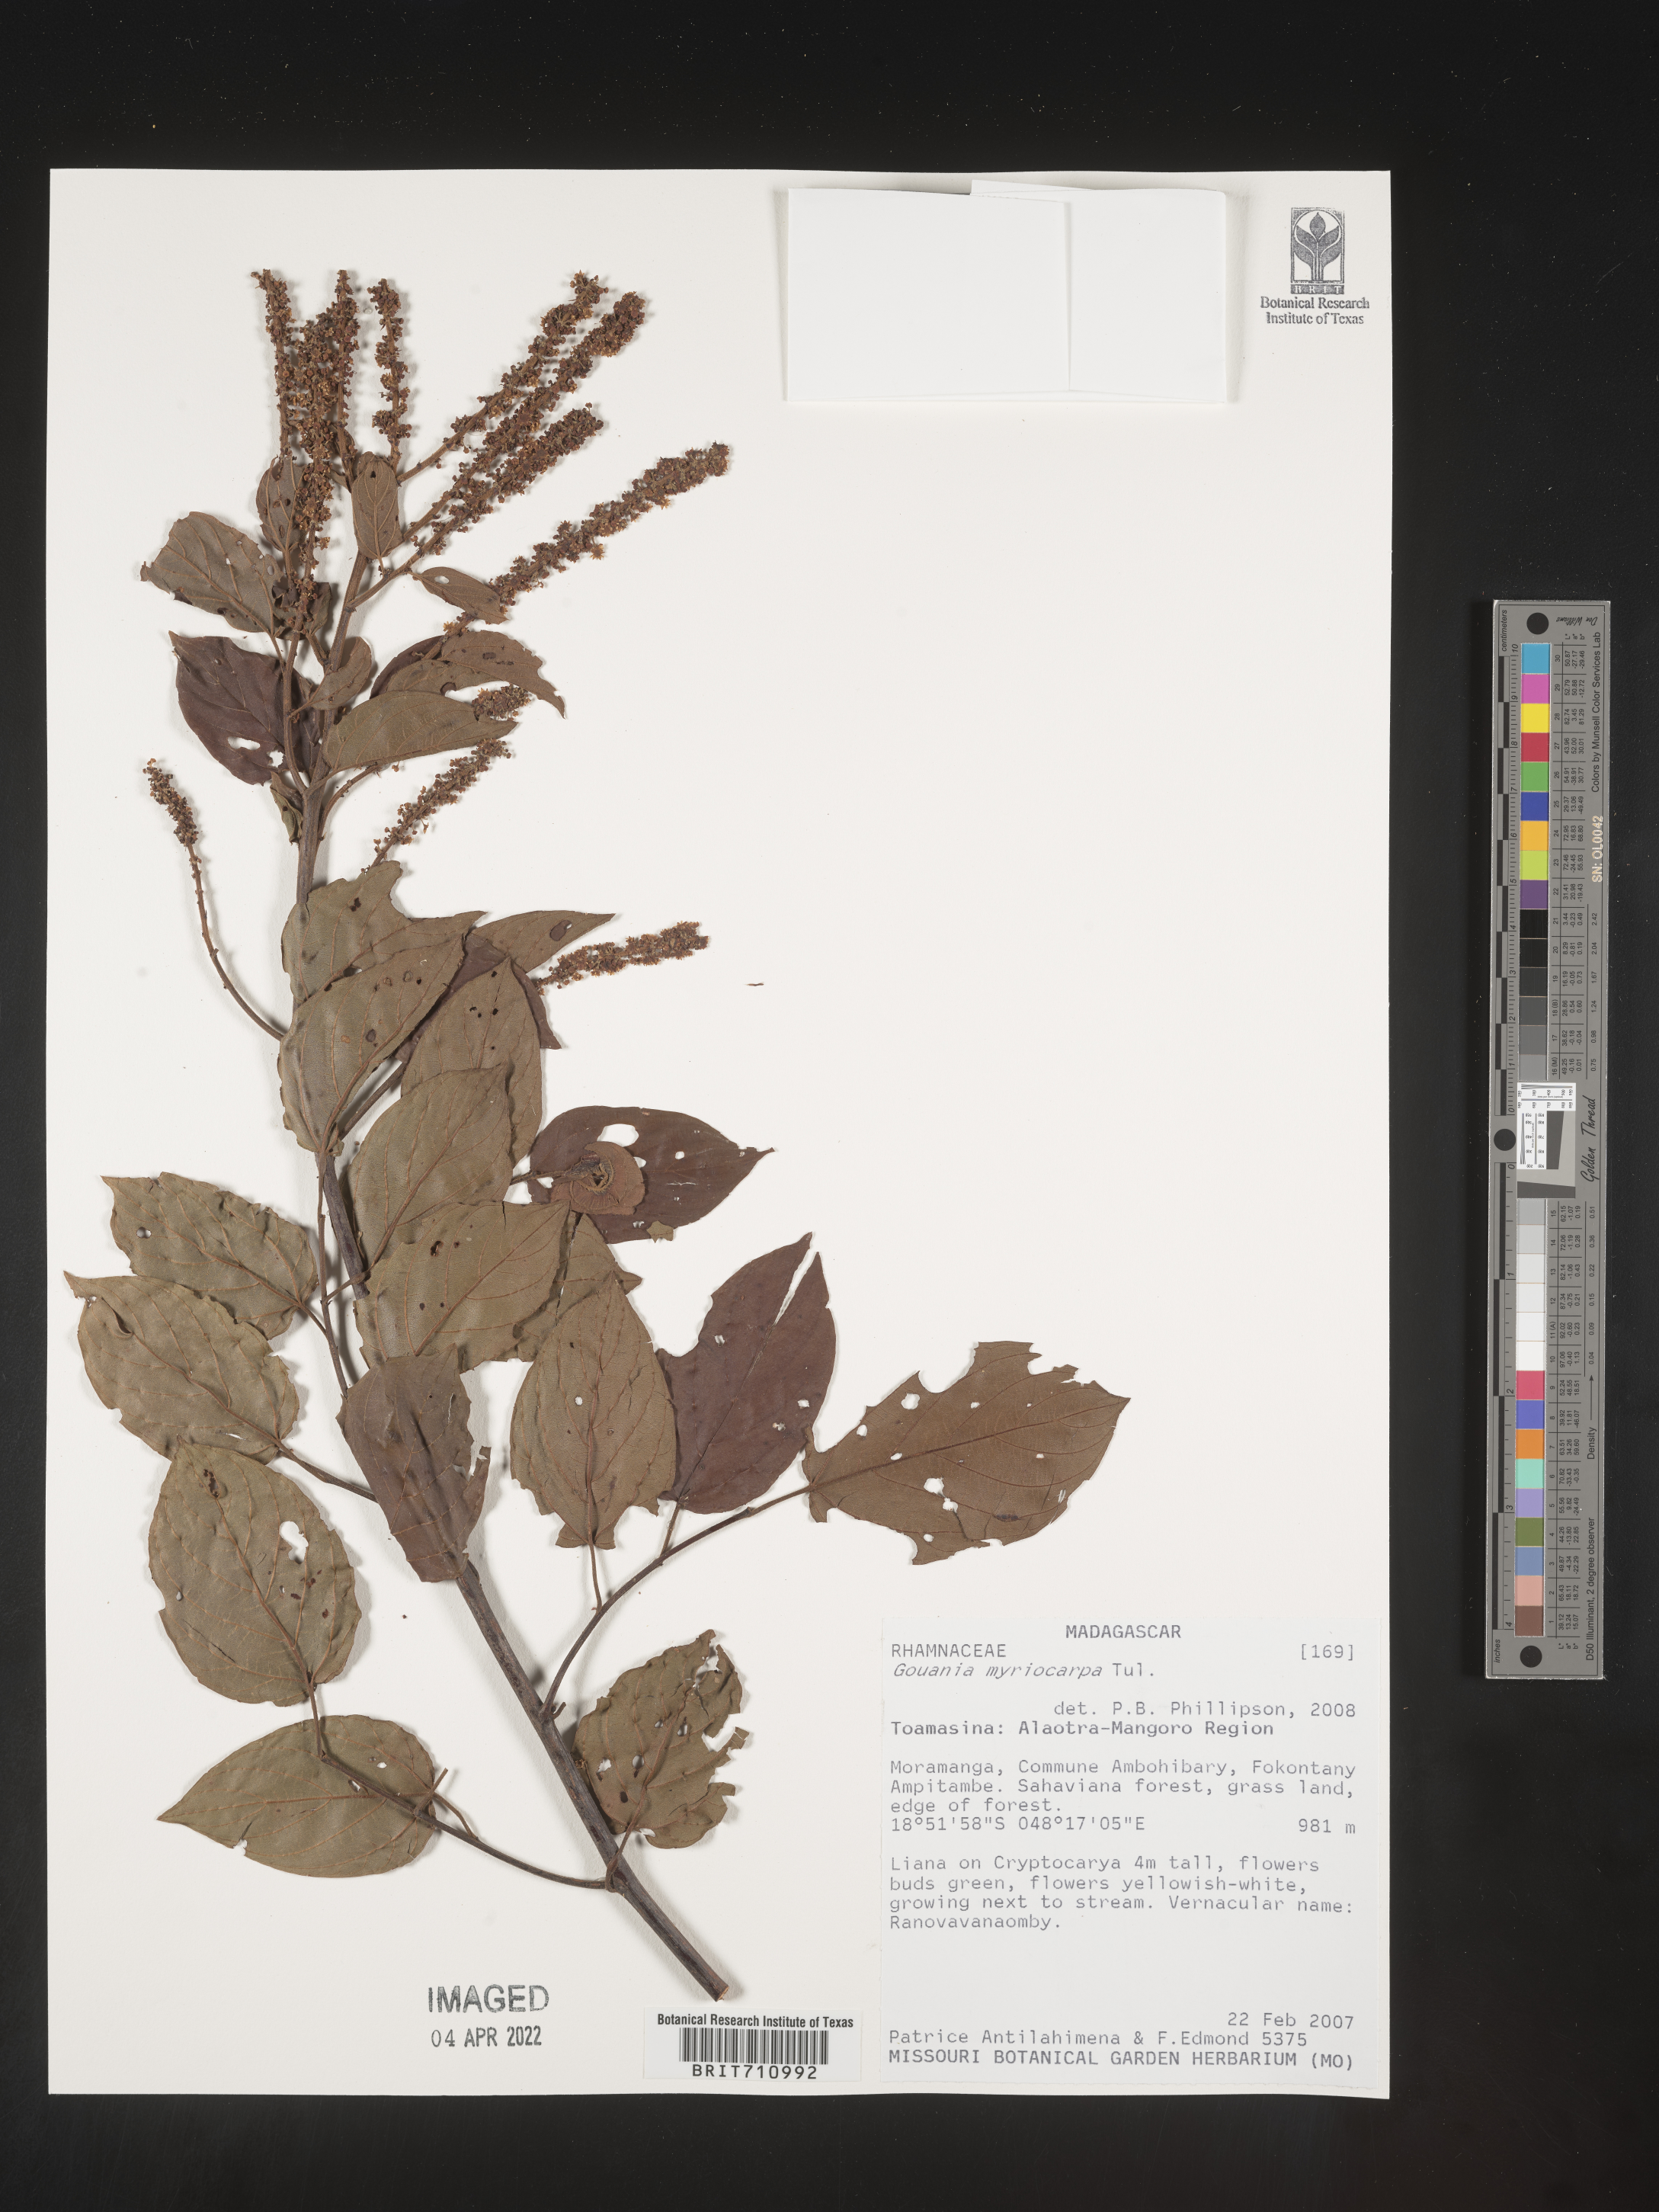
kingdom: Plantae
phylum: Tracheophyta
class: Magnoliopsida
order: Rosales
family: Rhamnaceae
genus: Gouania
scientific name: Gouania
